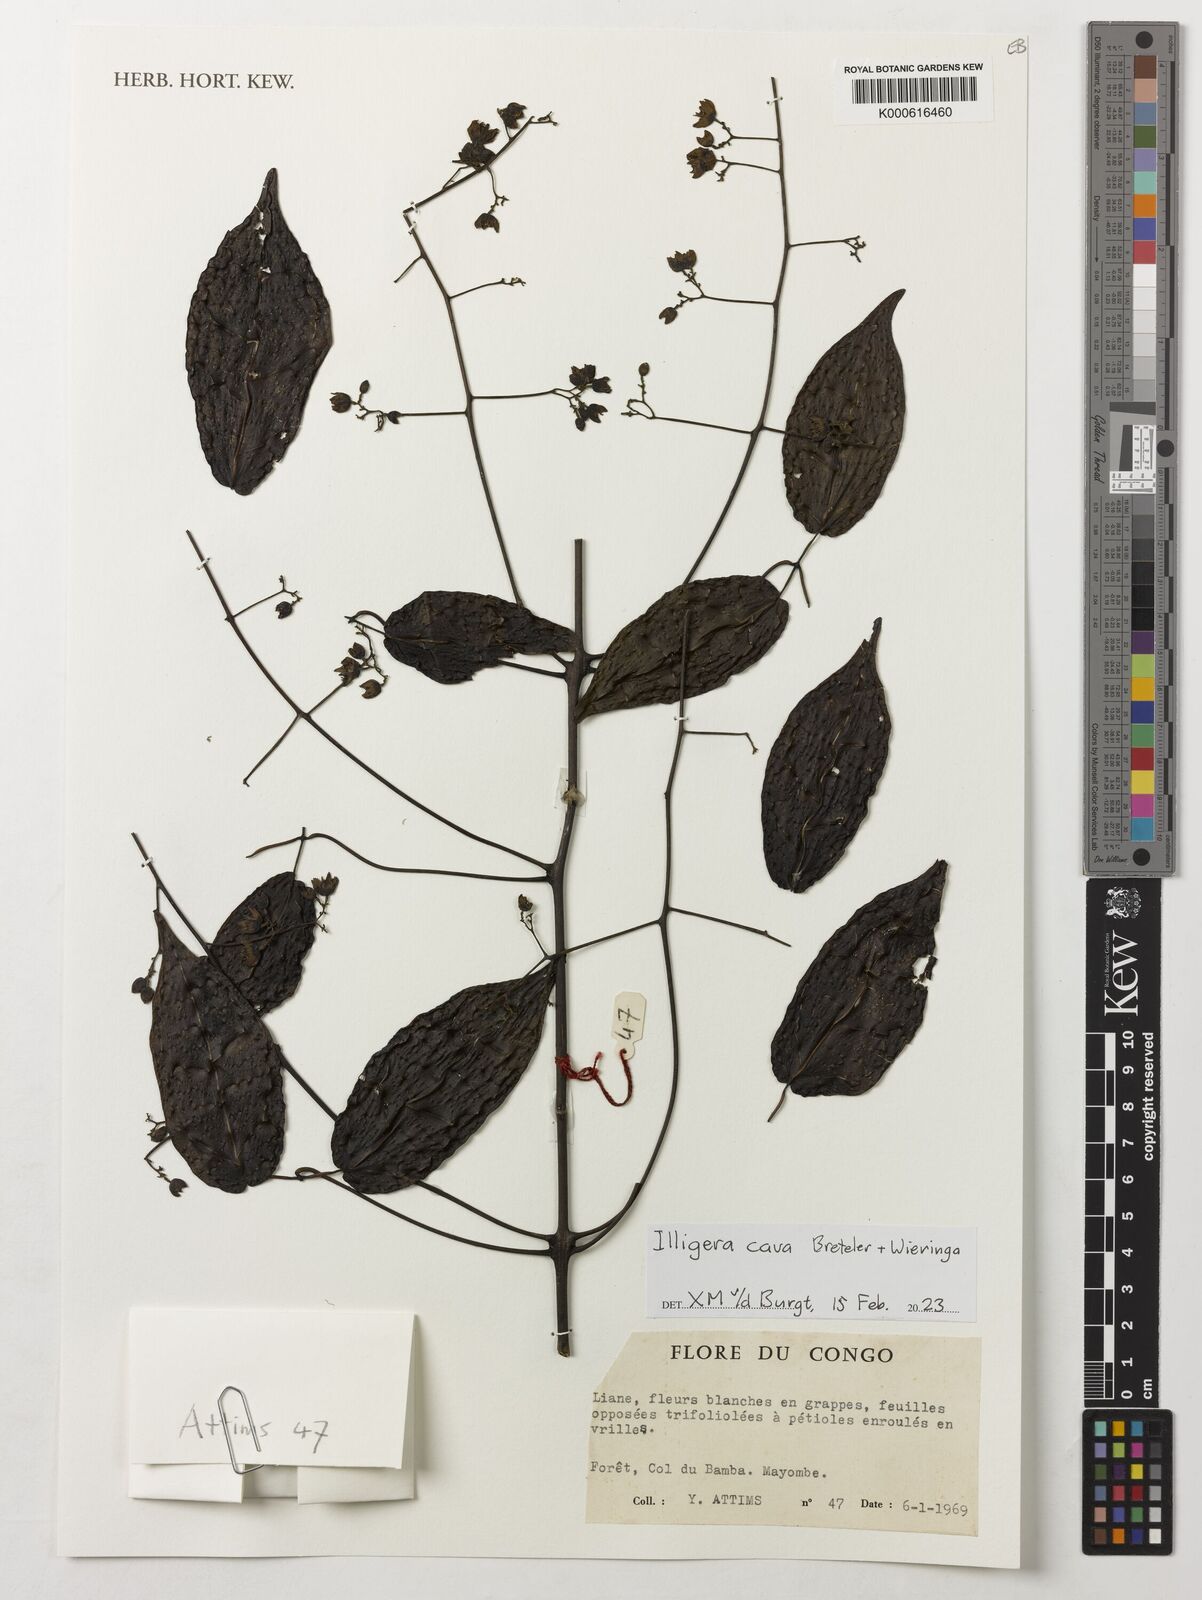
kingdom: Plantae
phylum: Tracheophyta
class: Magnoliopsida
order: Laurales
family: Hernandiaceae
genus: Illigera
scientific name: Illigera cava
